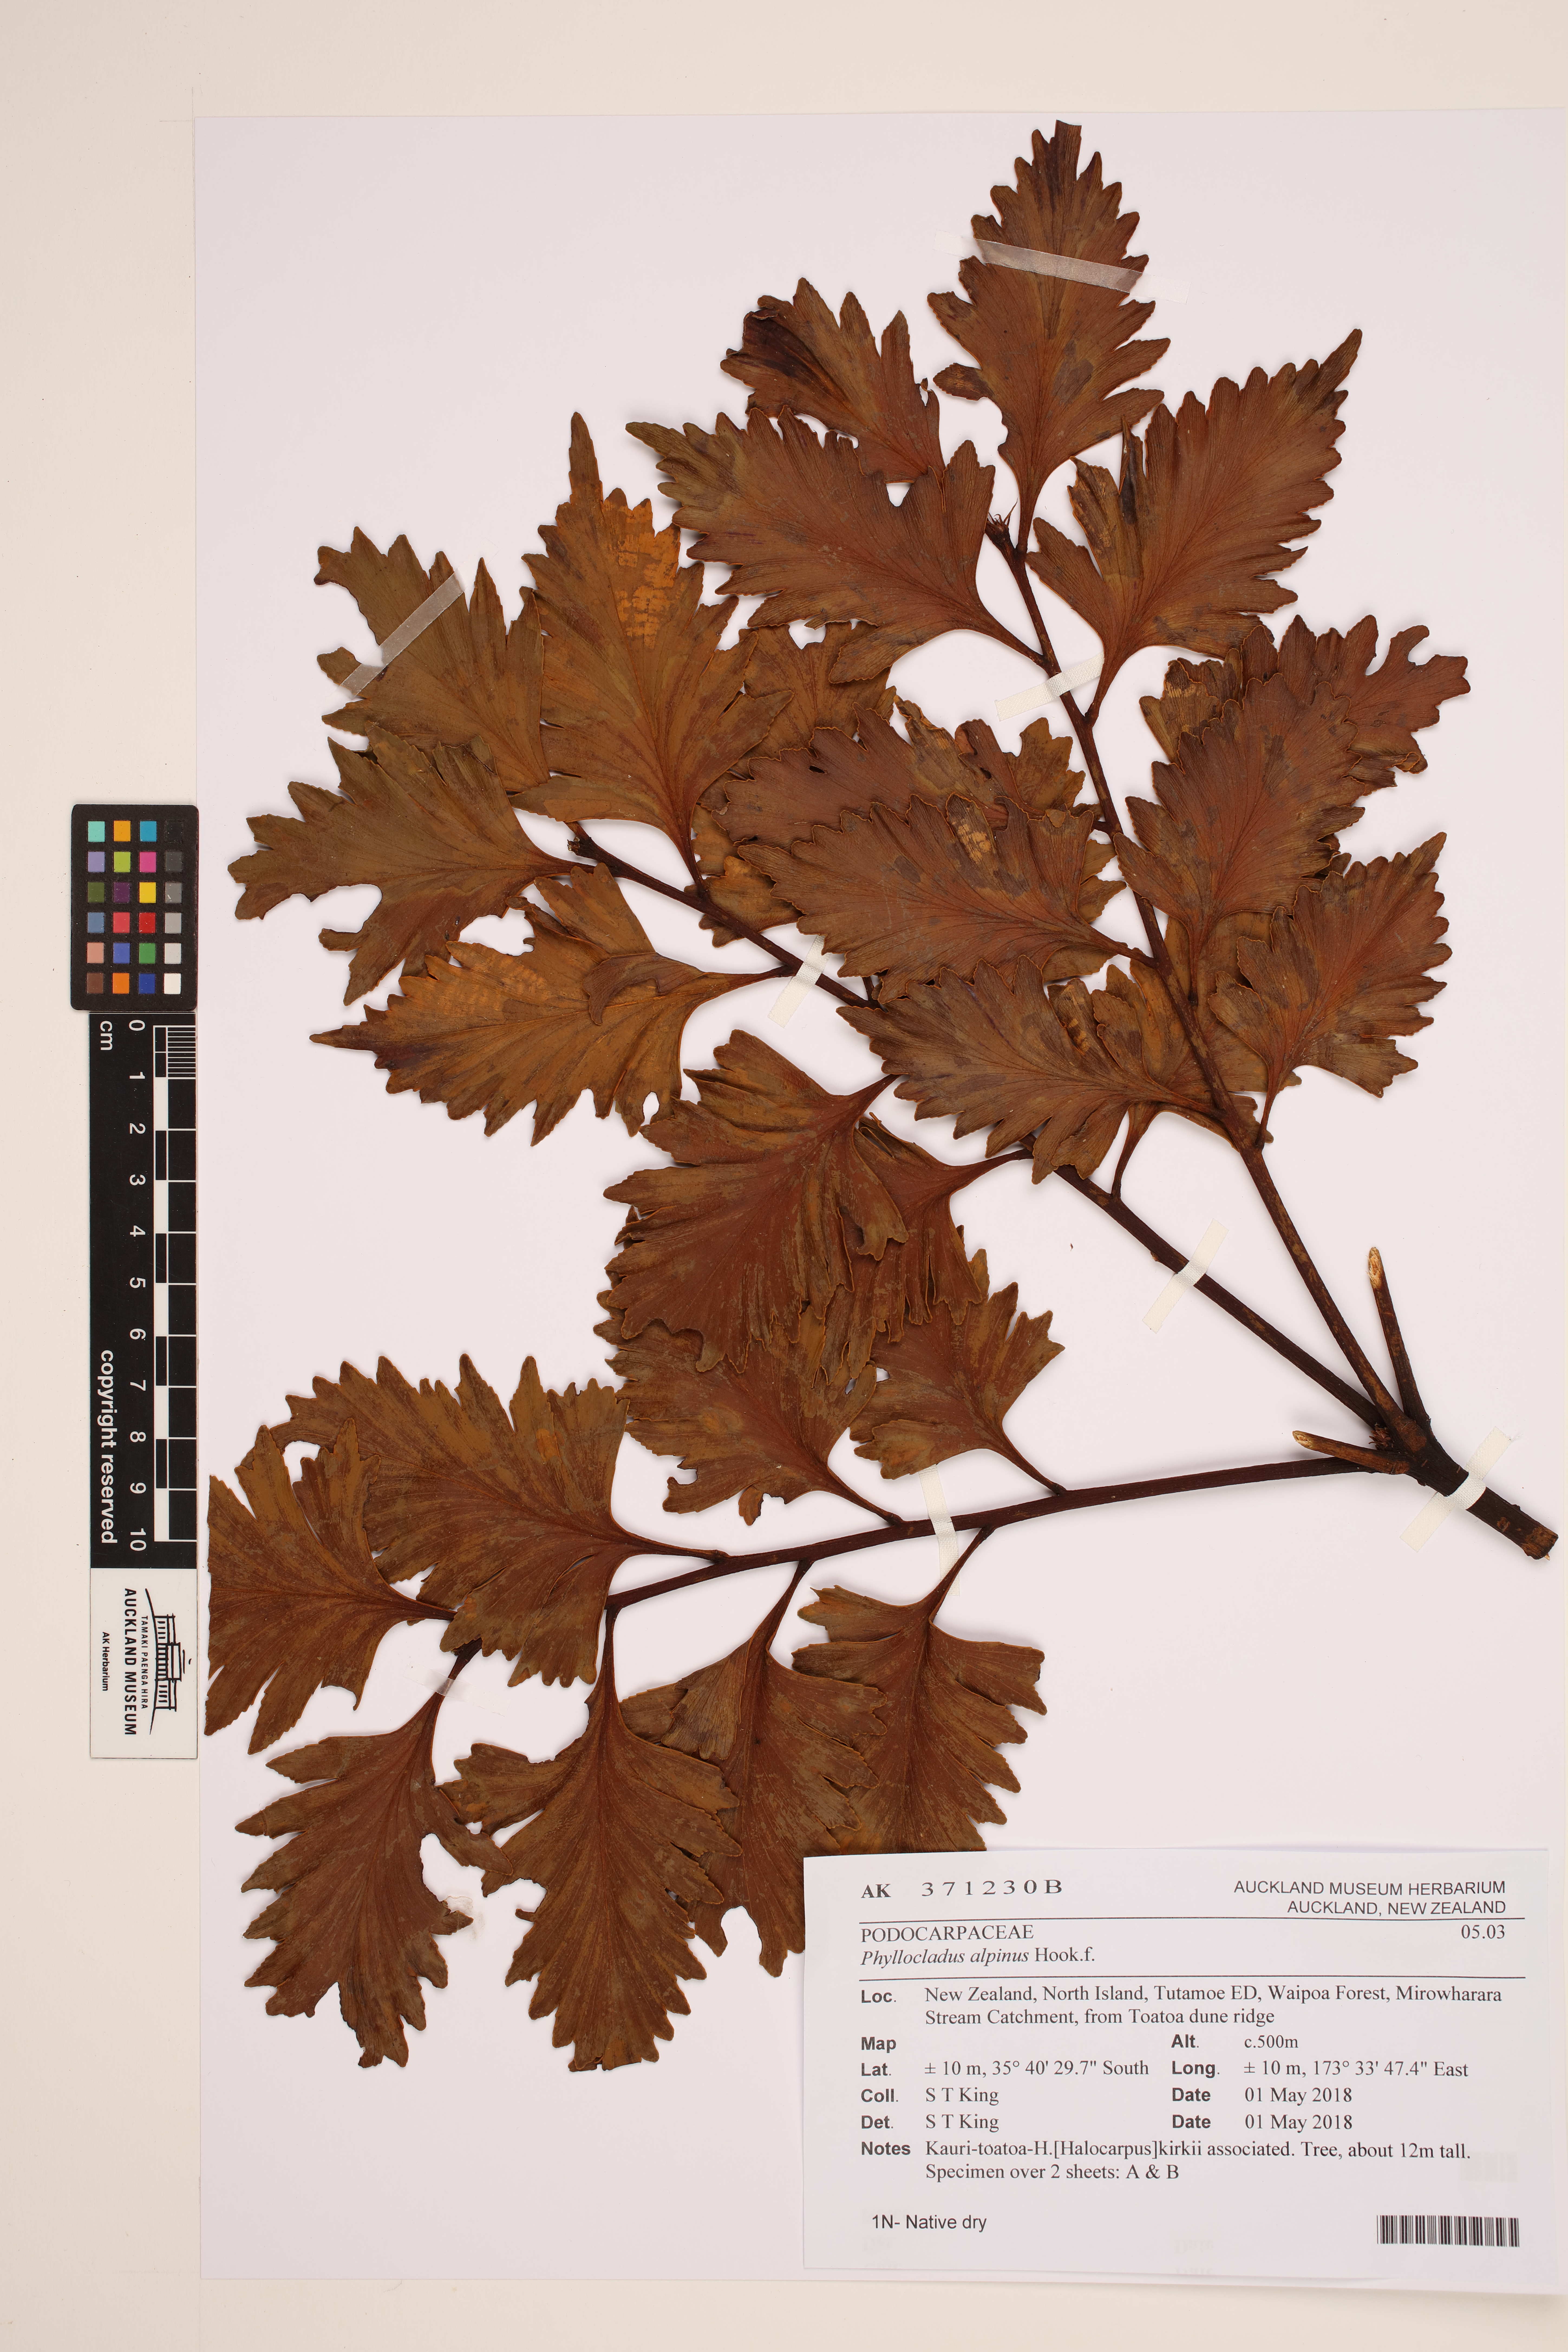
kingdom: Plantae
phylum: Tracheophyta
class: Pinopsida
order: Pinales
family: Phyllocladaceae
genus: Phyllocladus
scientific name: Phyllocladus trichomanoides
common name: Celery pine
